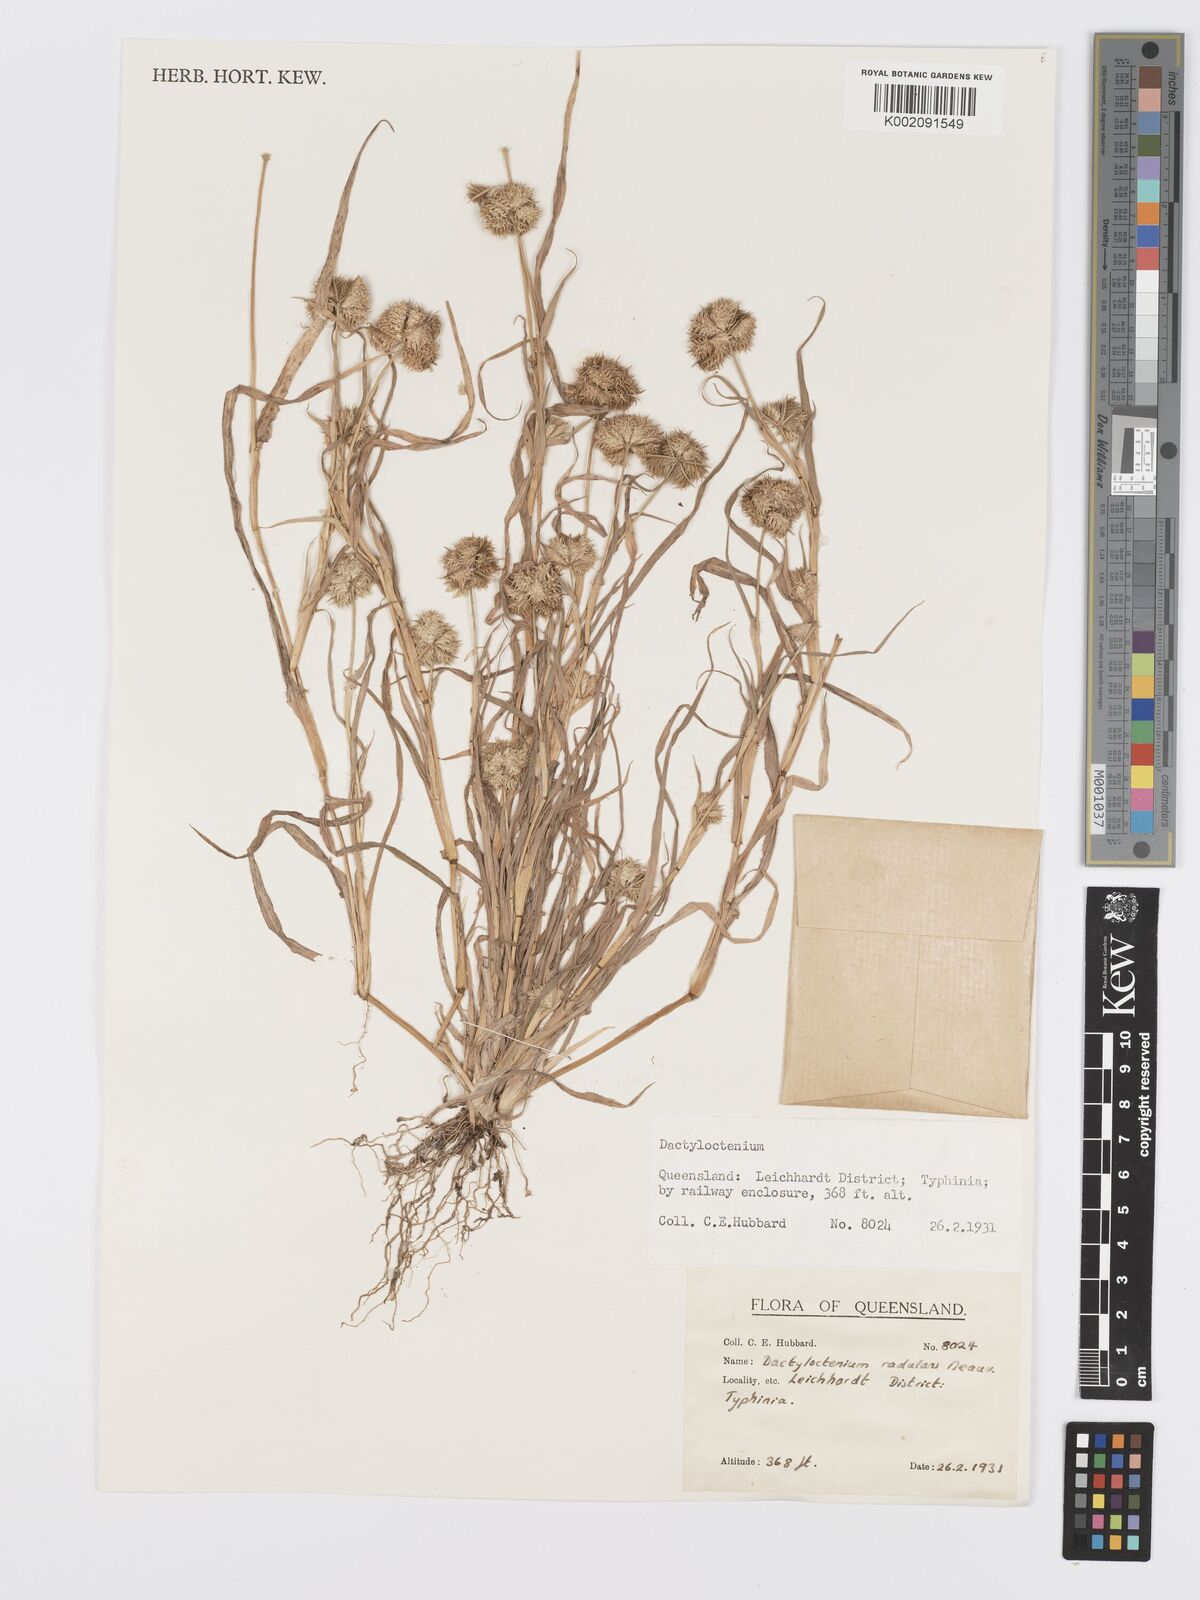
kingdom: Plantae
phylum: Tracheophyta
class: Liliopsida
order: Poales
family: Poaceae
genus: Dactyloctenium
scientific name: Dactyloctenium radulans
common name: Button-grass
